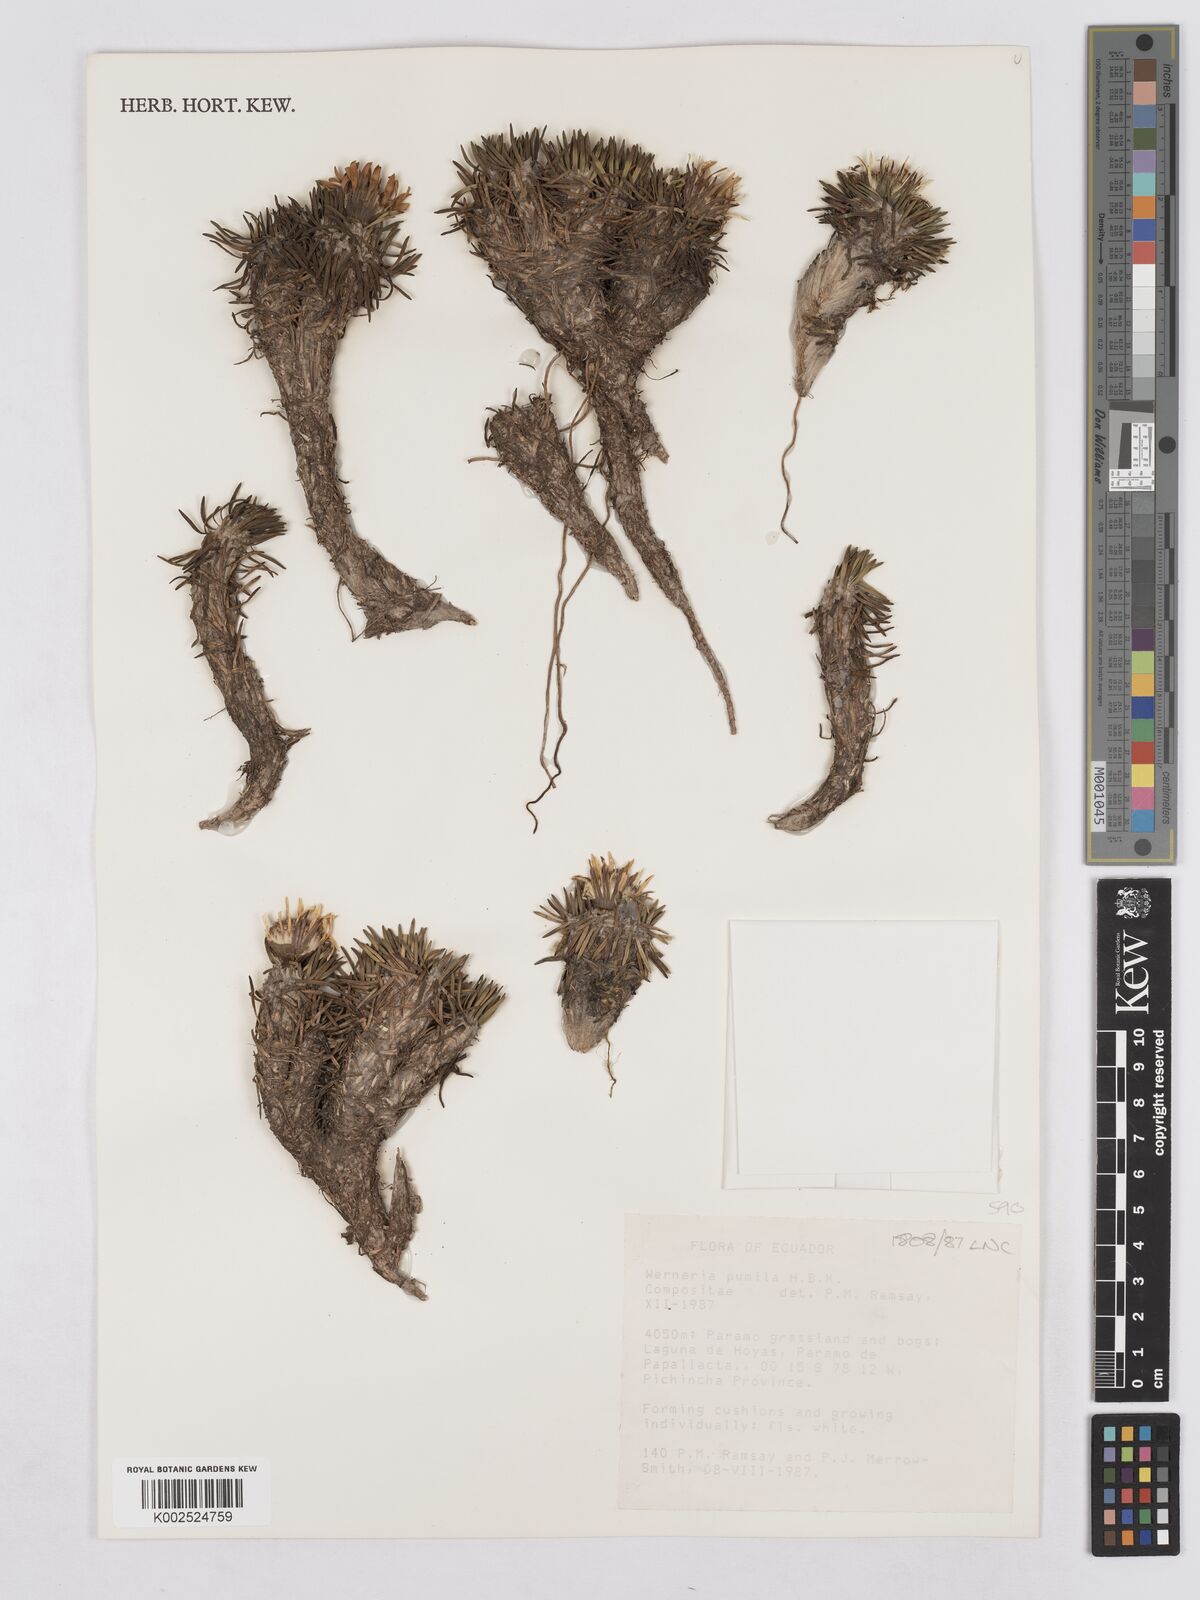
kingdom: Plantae
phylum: Tracheophyta
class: Magnoliopsida
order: Asterales
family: Asteraceae
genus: Rockhausenia
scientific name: Rockhausenia pumila
